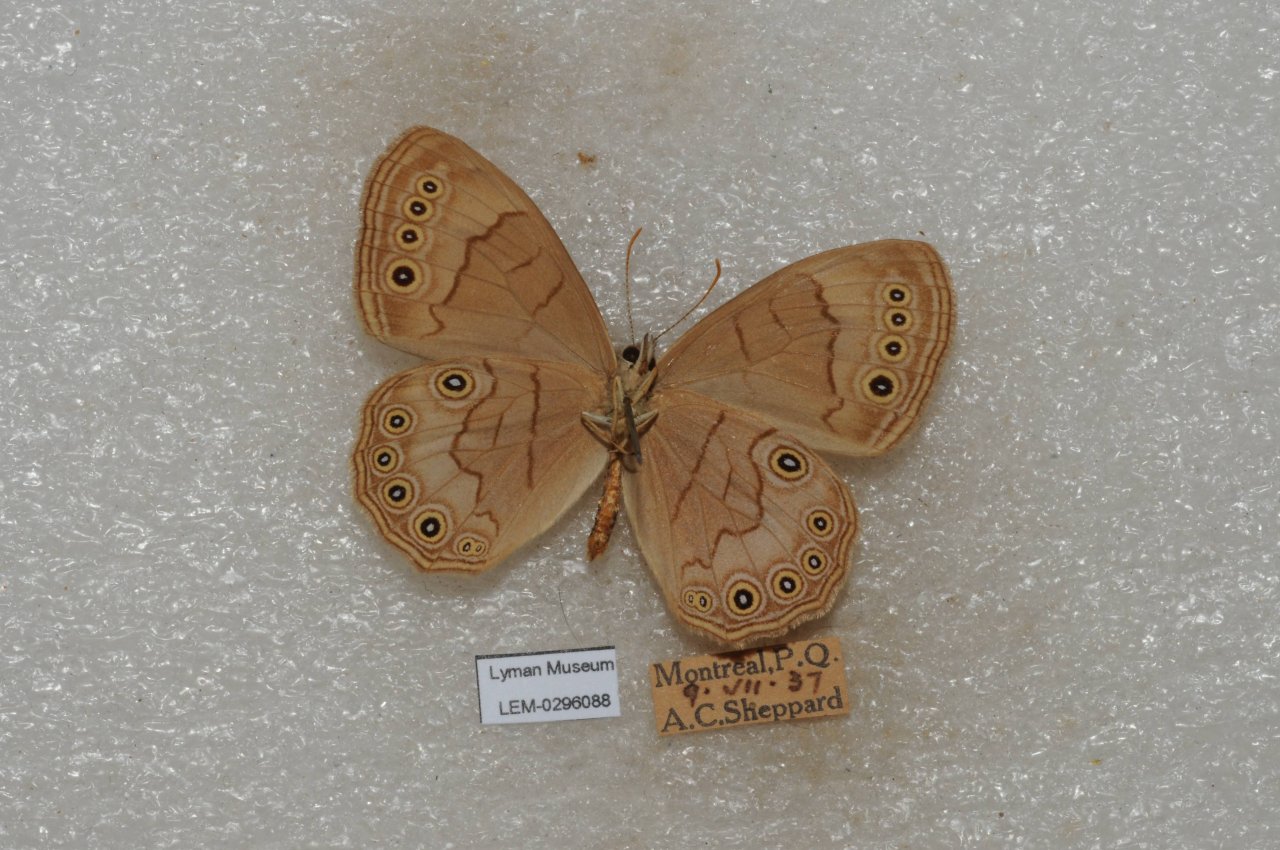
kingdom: Animalia
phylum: Arthropoda
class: Insecta
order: Lepidoptera
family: Nymphalidae
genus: Lethe
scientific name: Lethe eurydice
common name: Eyed Brown
